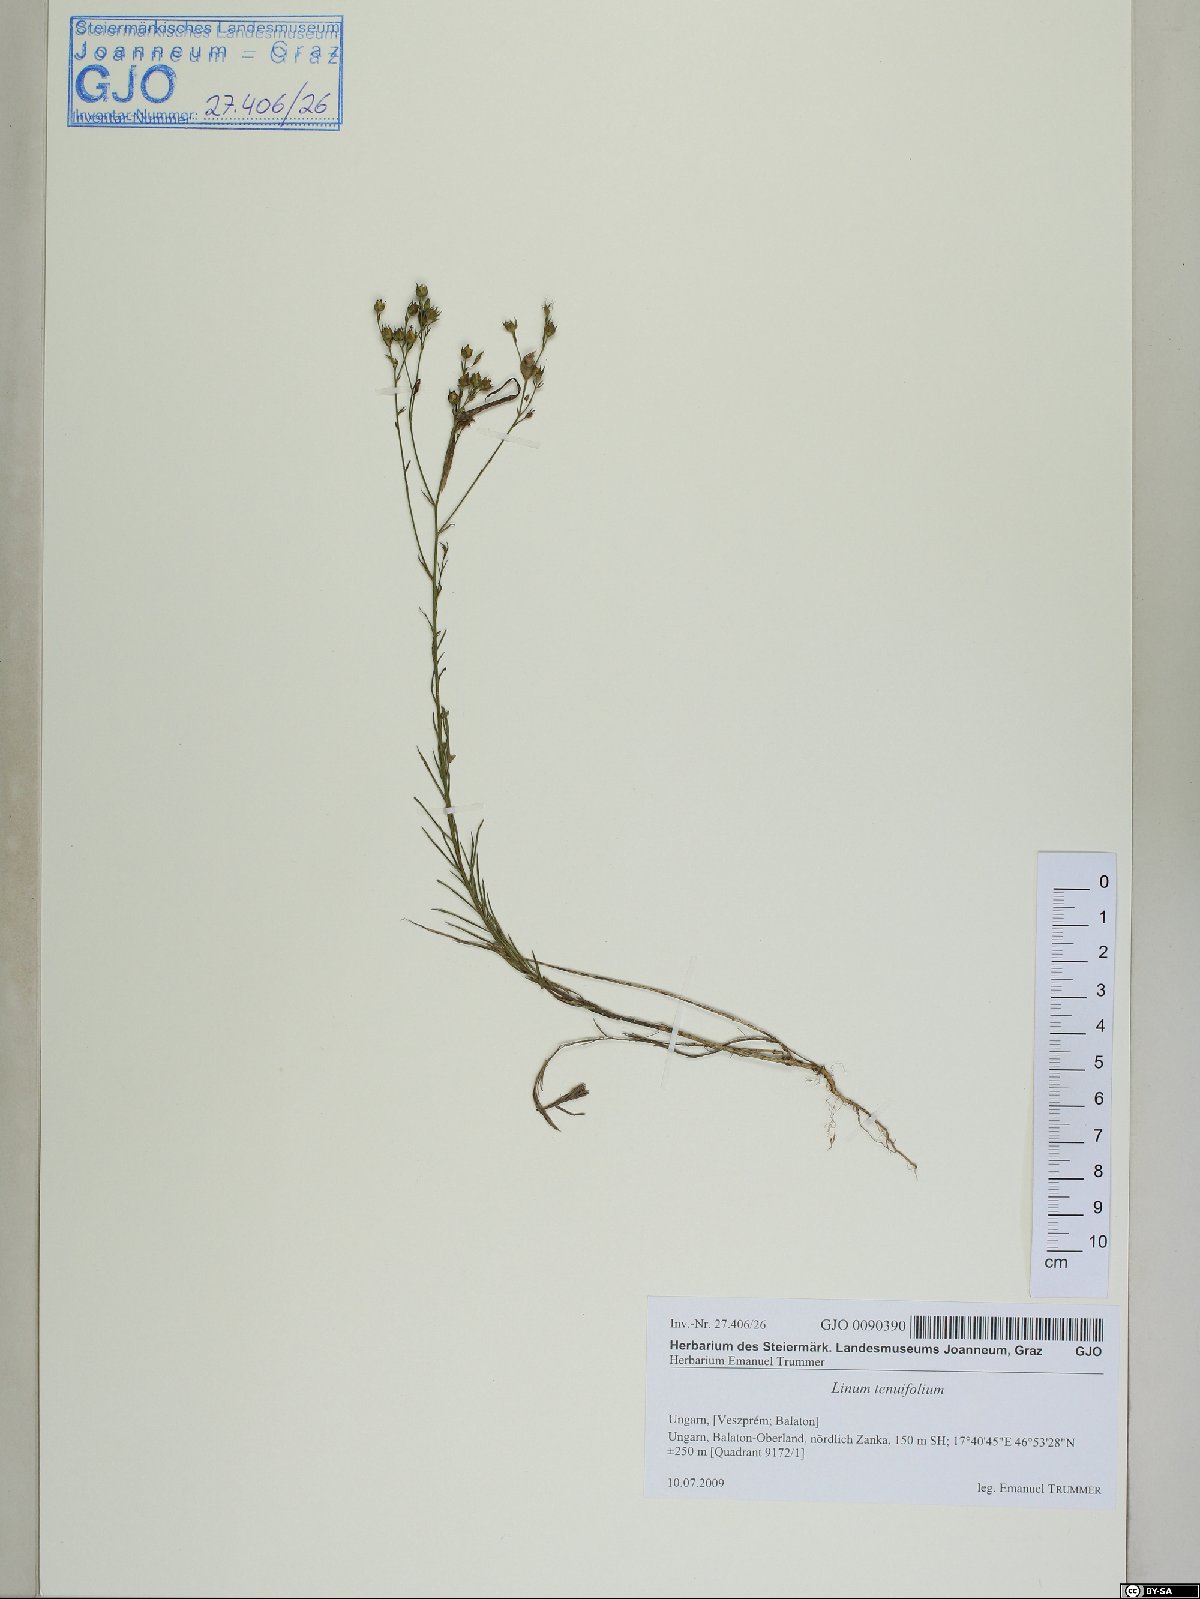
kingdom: Plantae
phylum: Tracheophyta
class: Magnoliopsida
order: Malpighiales
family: Linaceae
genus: Linum
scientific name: Linum tenuifolium
